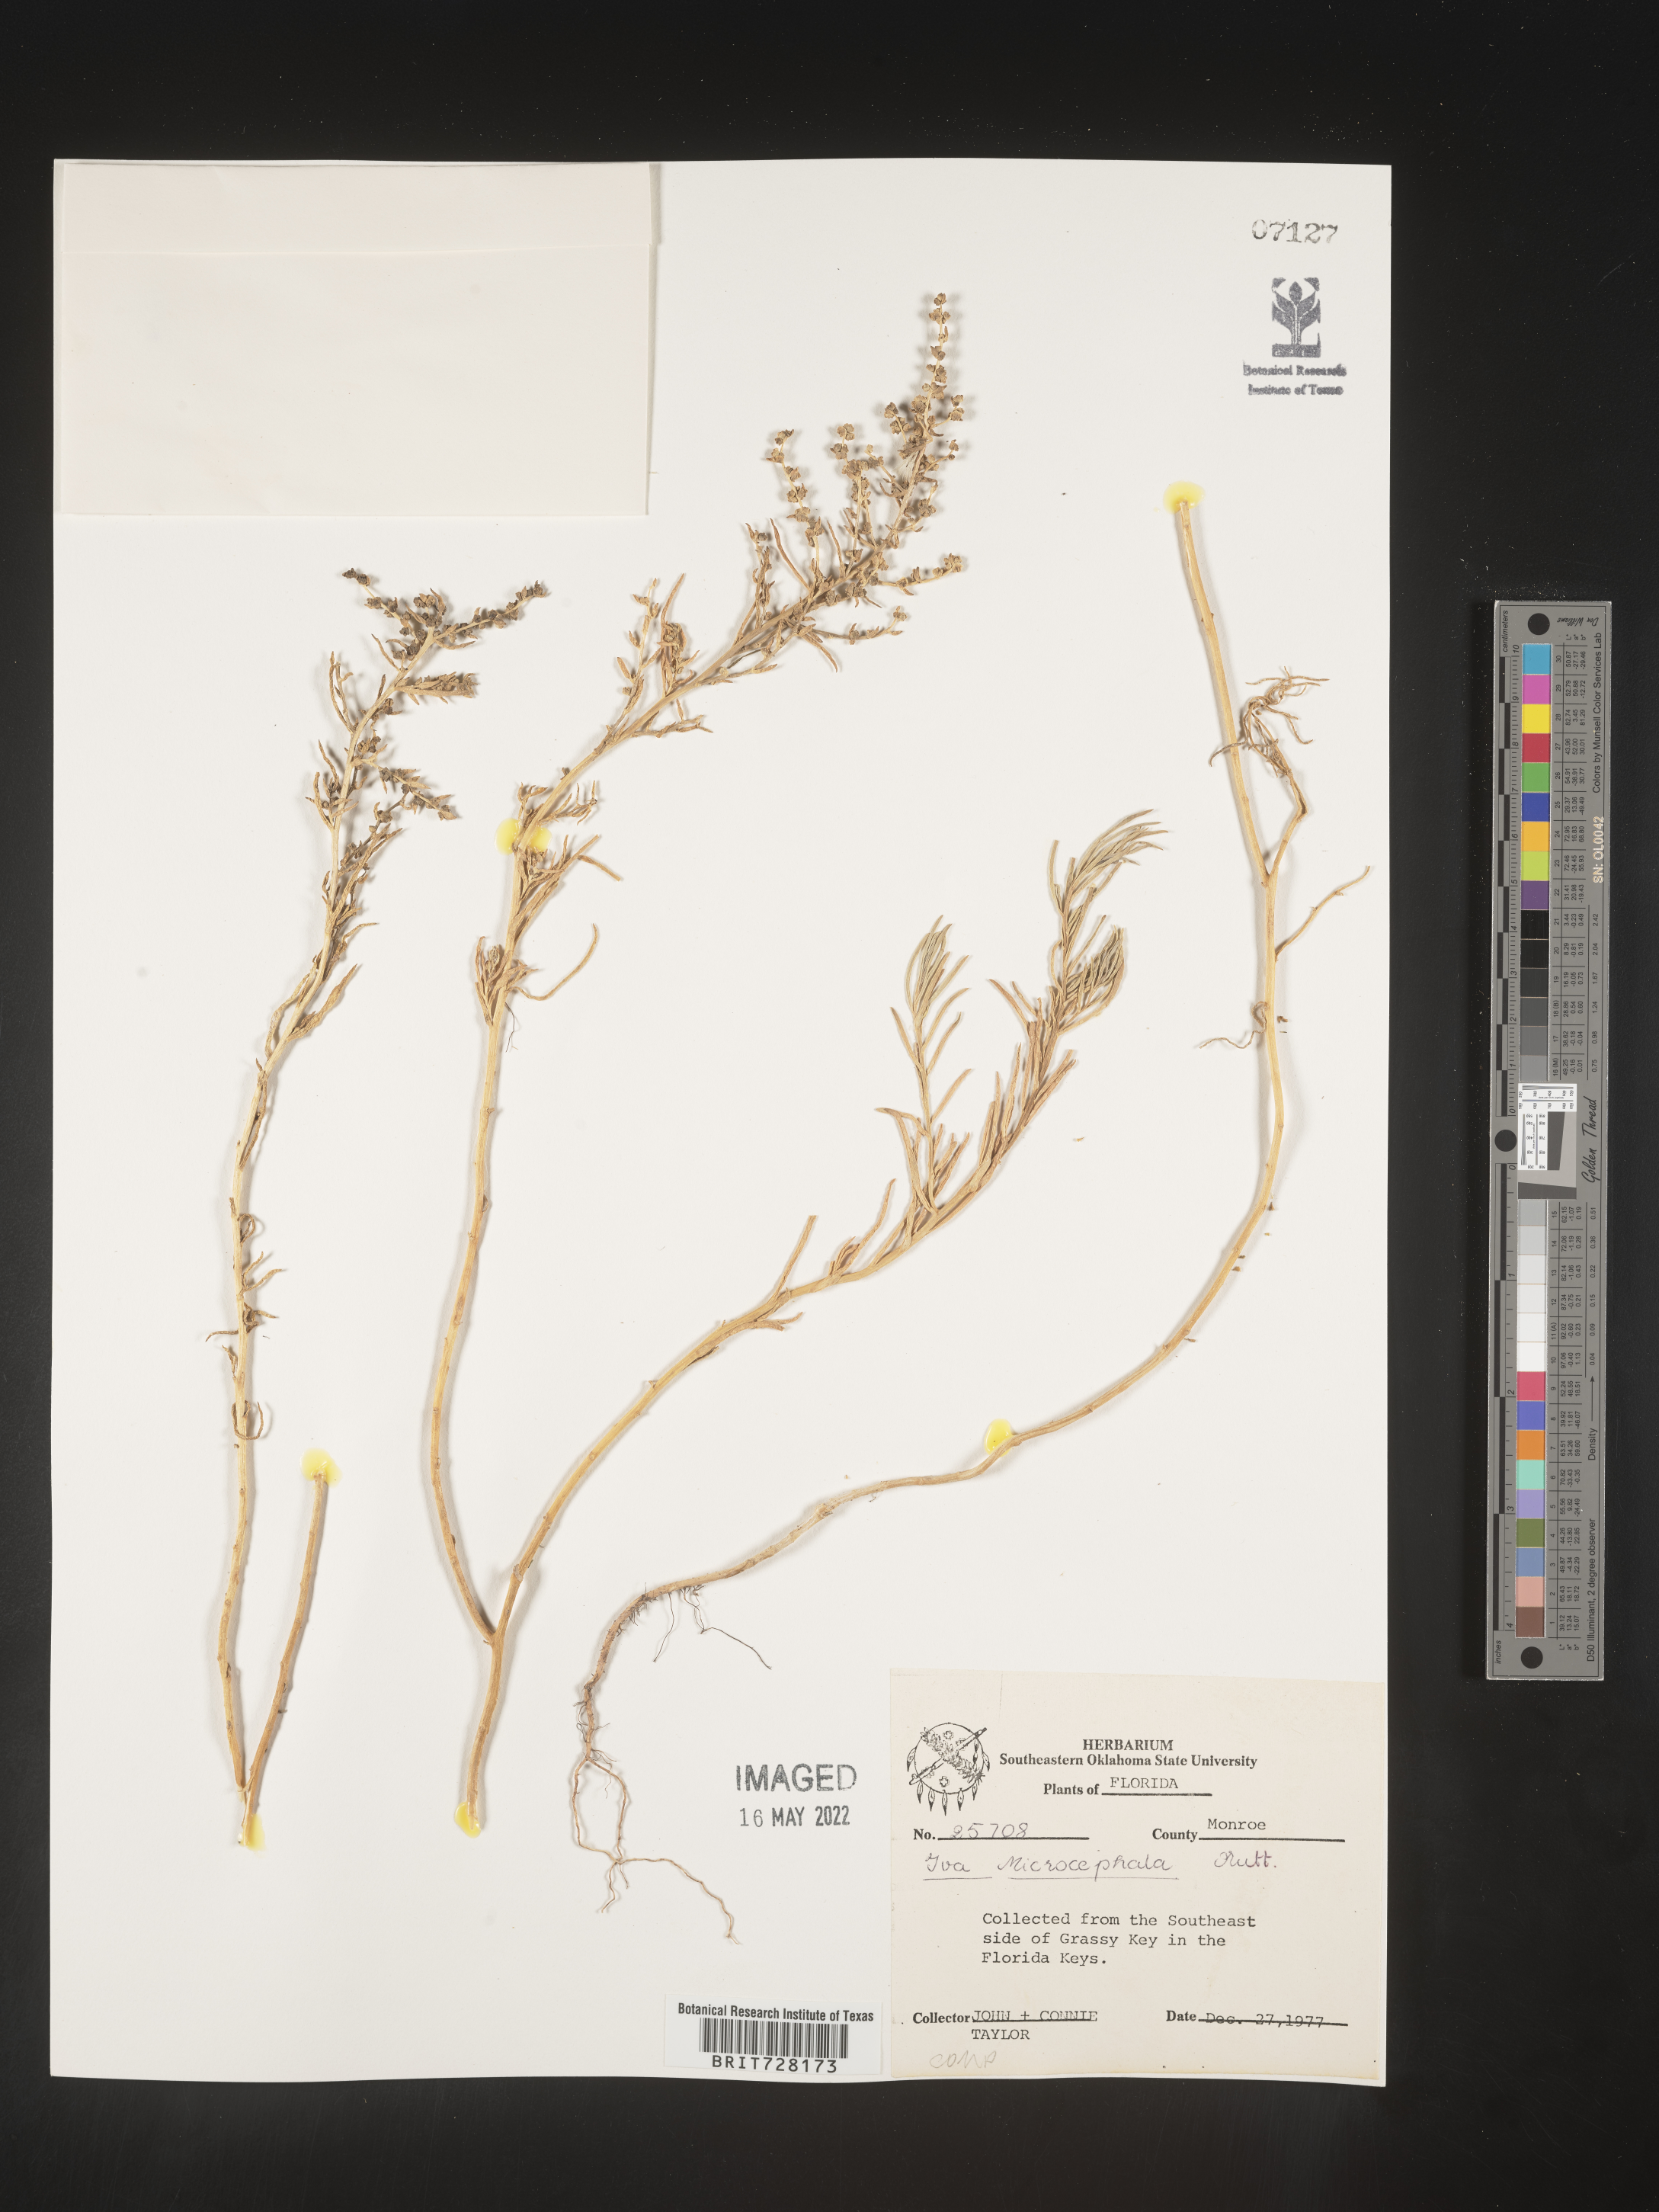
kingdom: Plantae
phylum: Tracheophyta
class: Magnoliopsida
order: Asterales
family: Asteraceae
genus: Iva
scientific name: Iva microcephala
